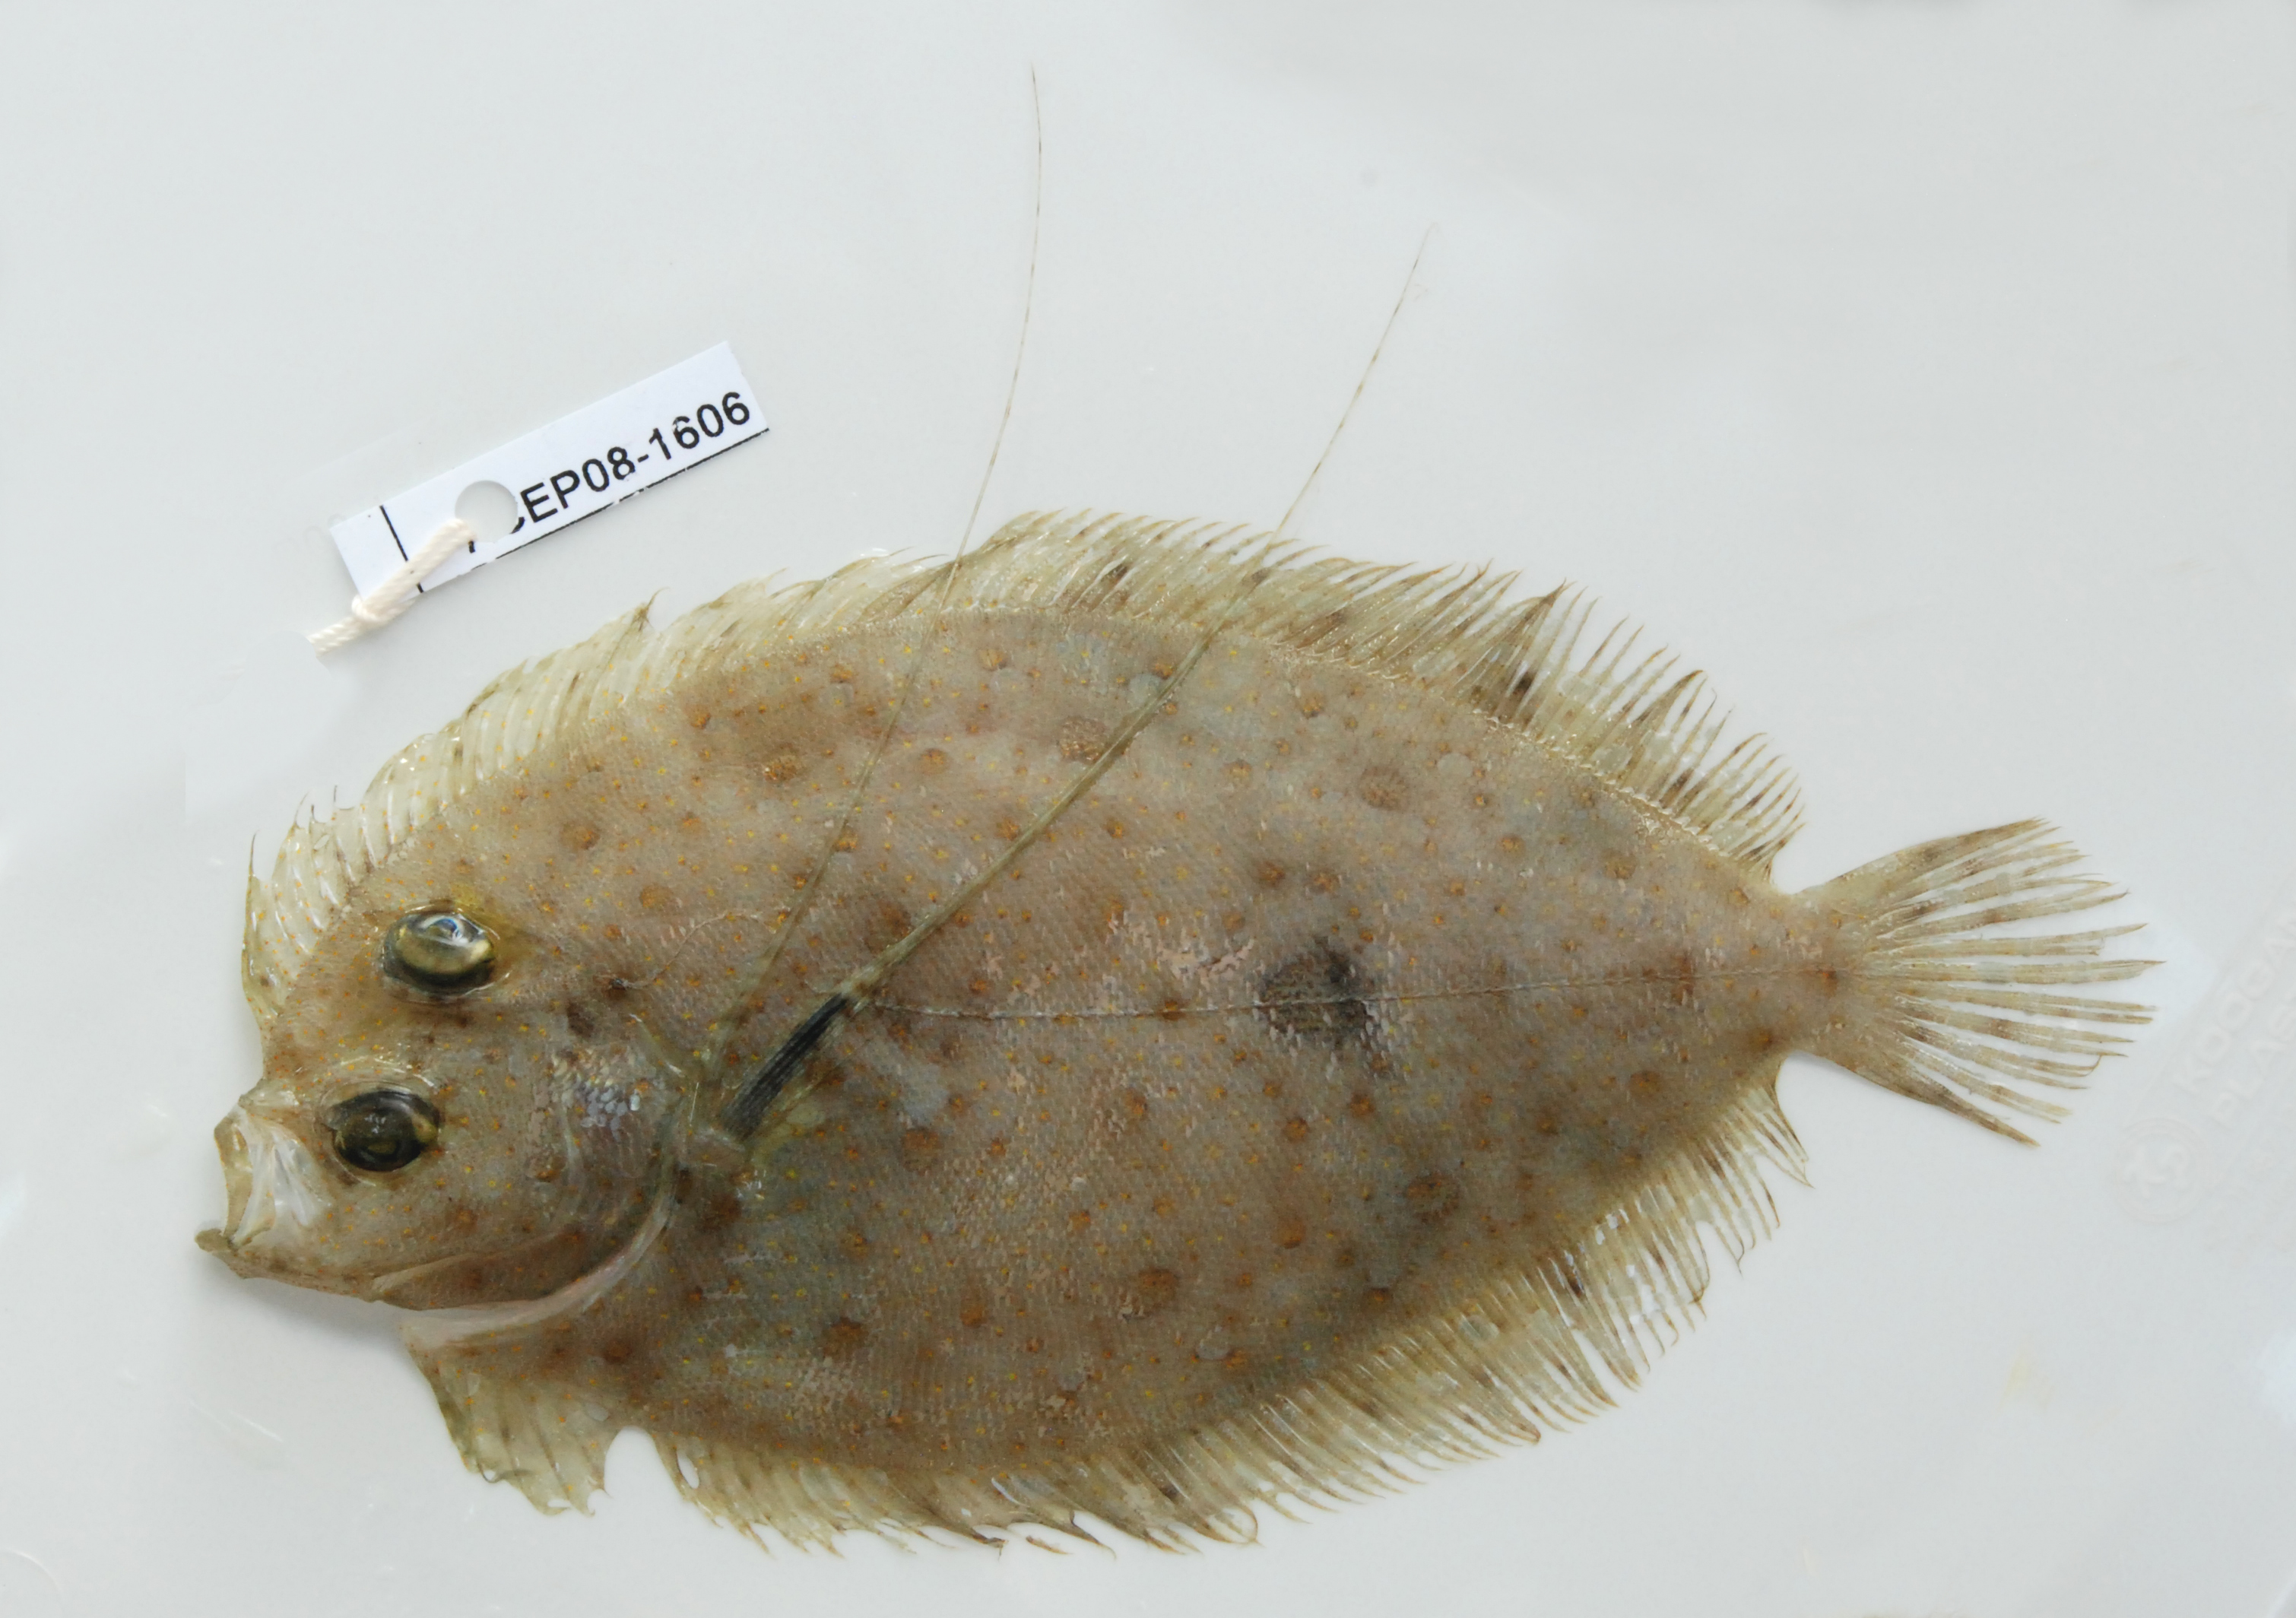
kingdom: Animalia
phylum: Chordata
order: Pleuronectiformes
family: Bothidae
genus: Bothus
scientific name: Bothus pantherinus
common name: Leopard flounder
